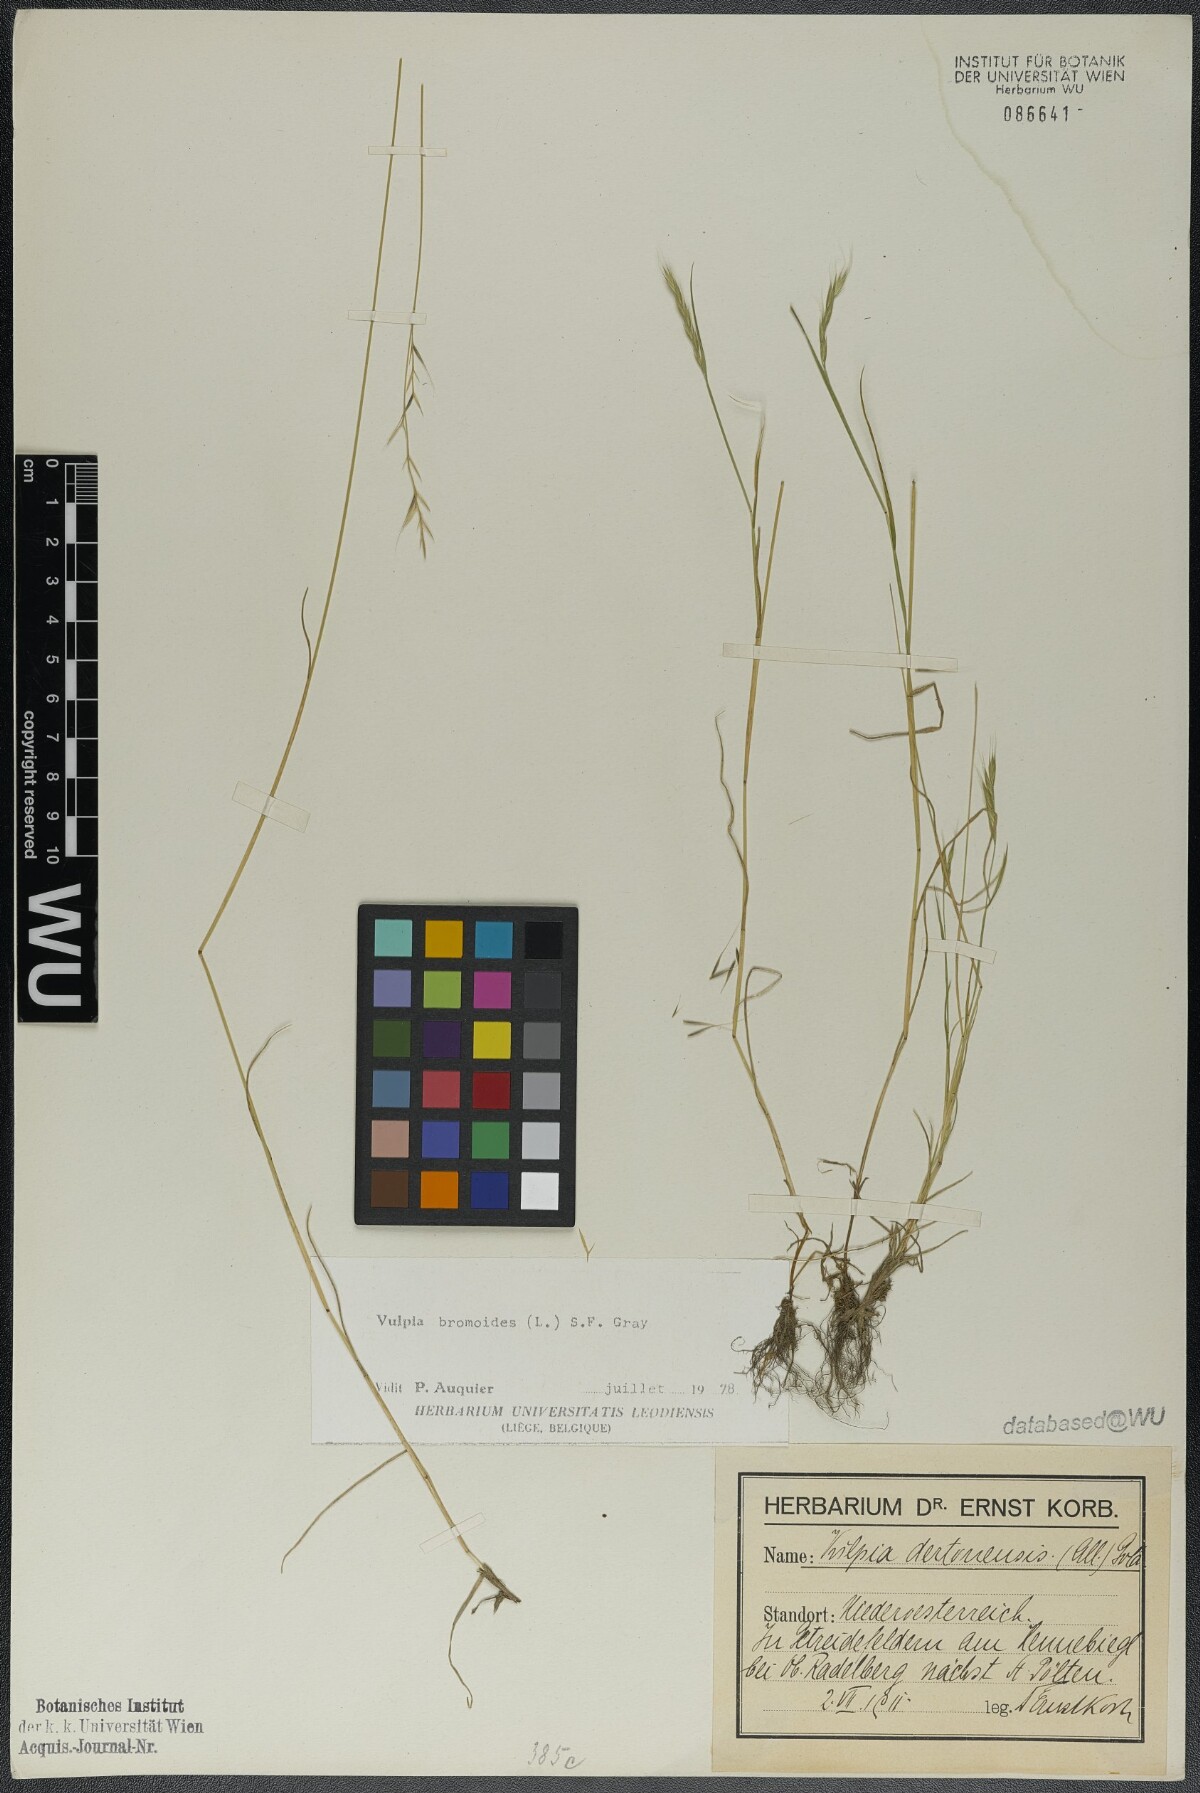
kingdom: Plantae
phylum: Tracheophyta
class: Liliopsida
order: Poales
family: Poaceae
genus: Festuca
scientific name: Festuca bromoides
